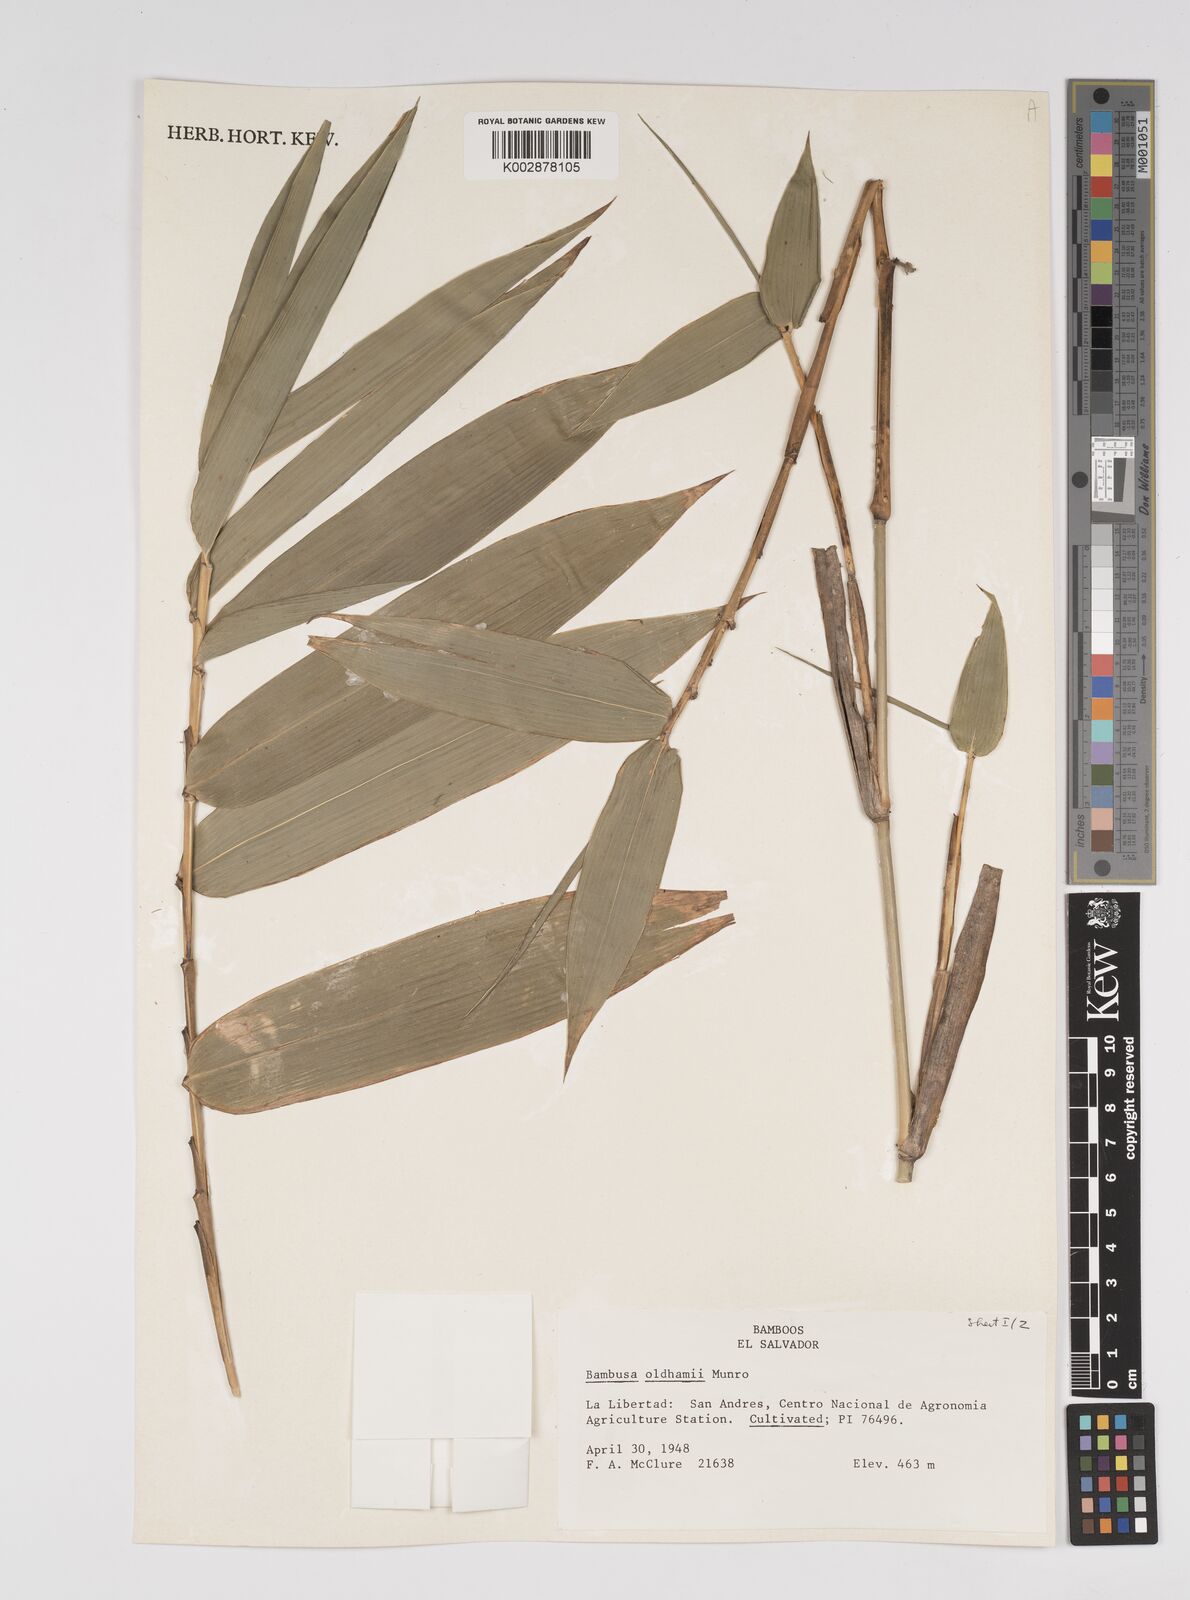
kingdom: Plantae
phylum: Tracheophyta
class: Liliopsida
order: Poales
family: Poaceae
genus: Bambusa
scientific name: Bambusa oldhamii
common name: Giant timber bamboo
